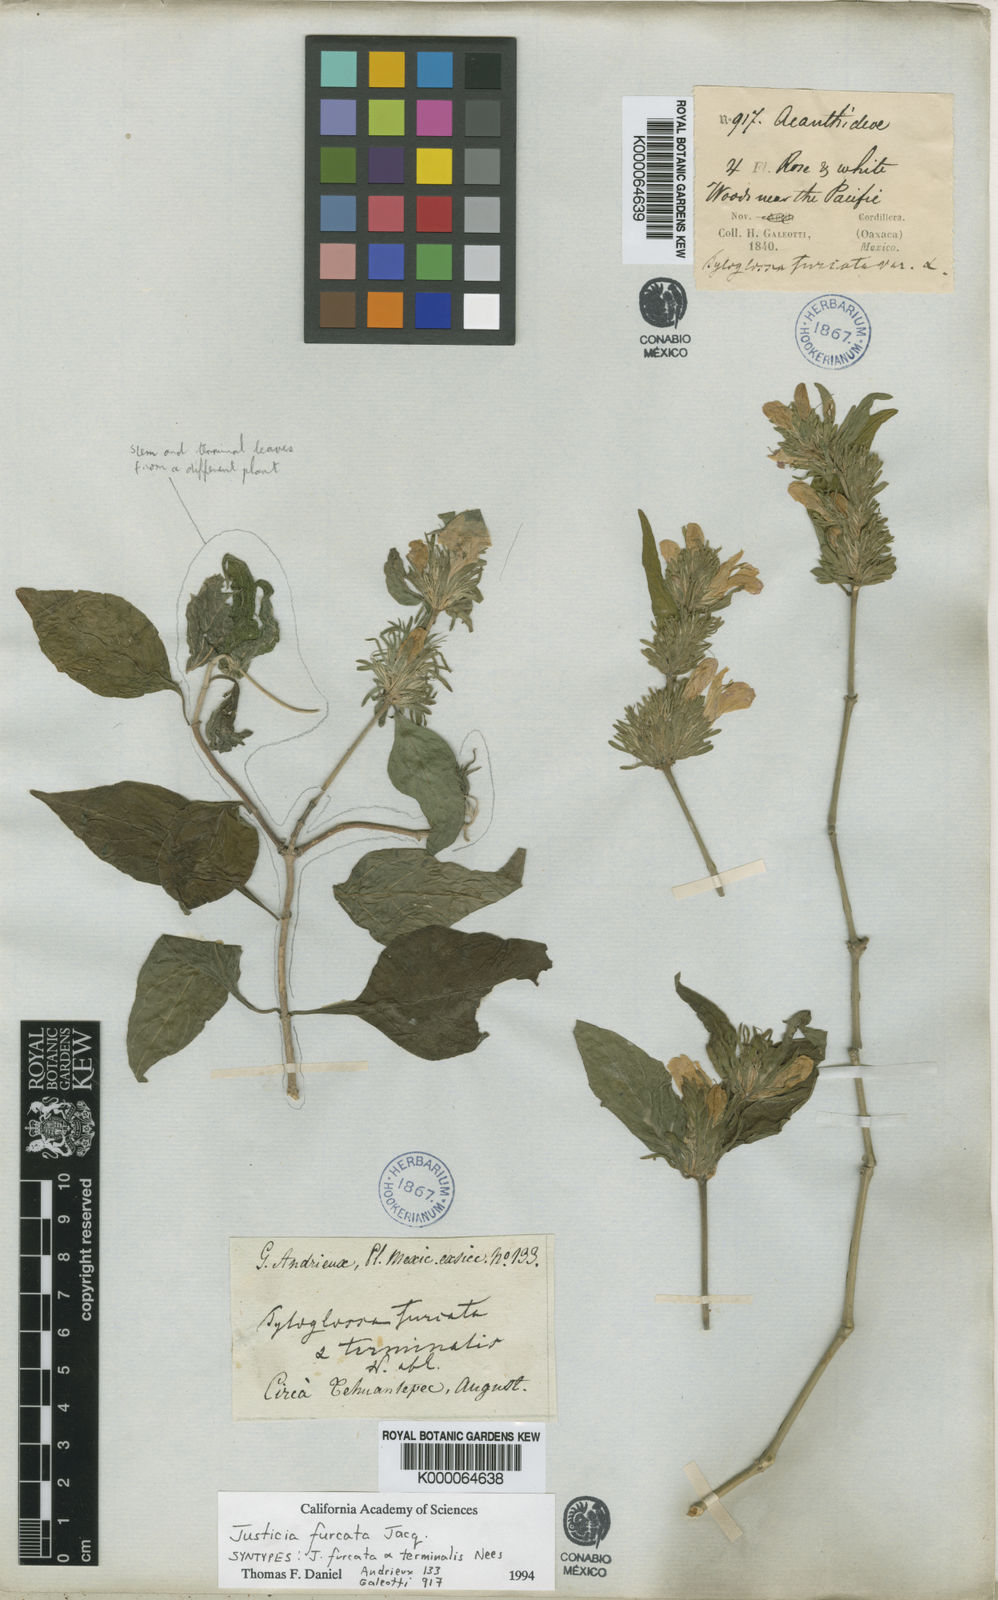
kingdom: Plantae
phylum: Tracheophyta
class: Magnoliopsida
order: Lamiales
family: Acanthaceae
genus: Justicia
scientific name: Justicia furcata
